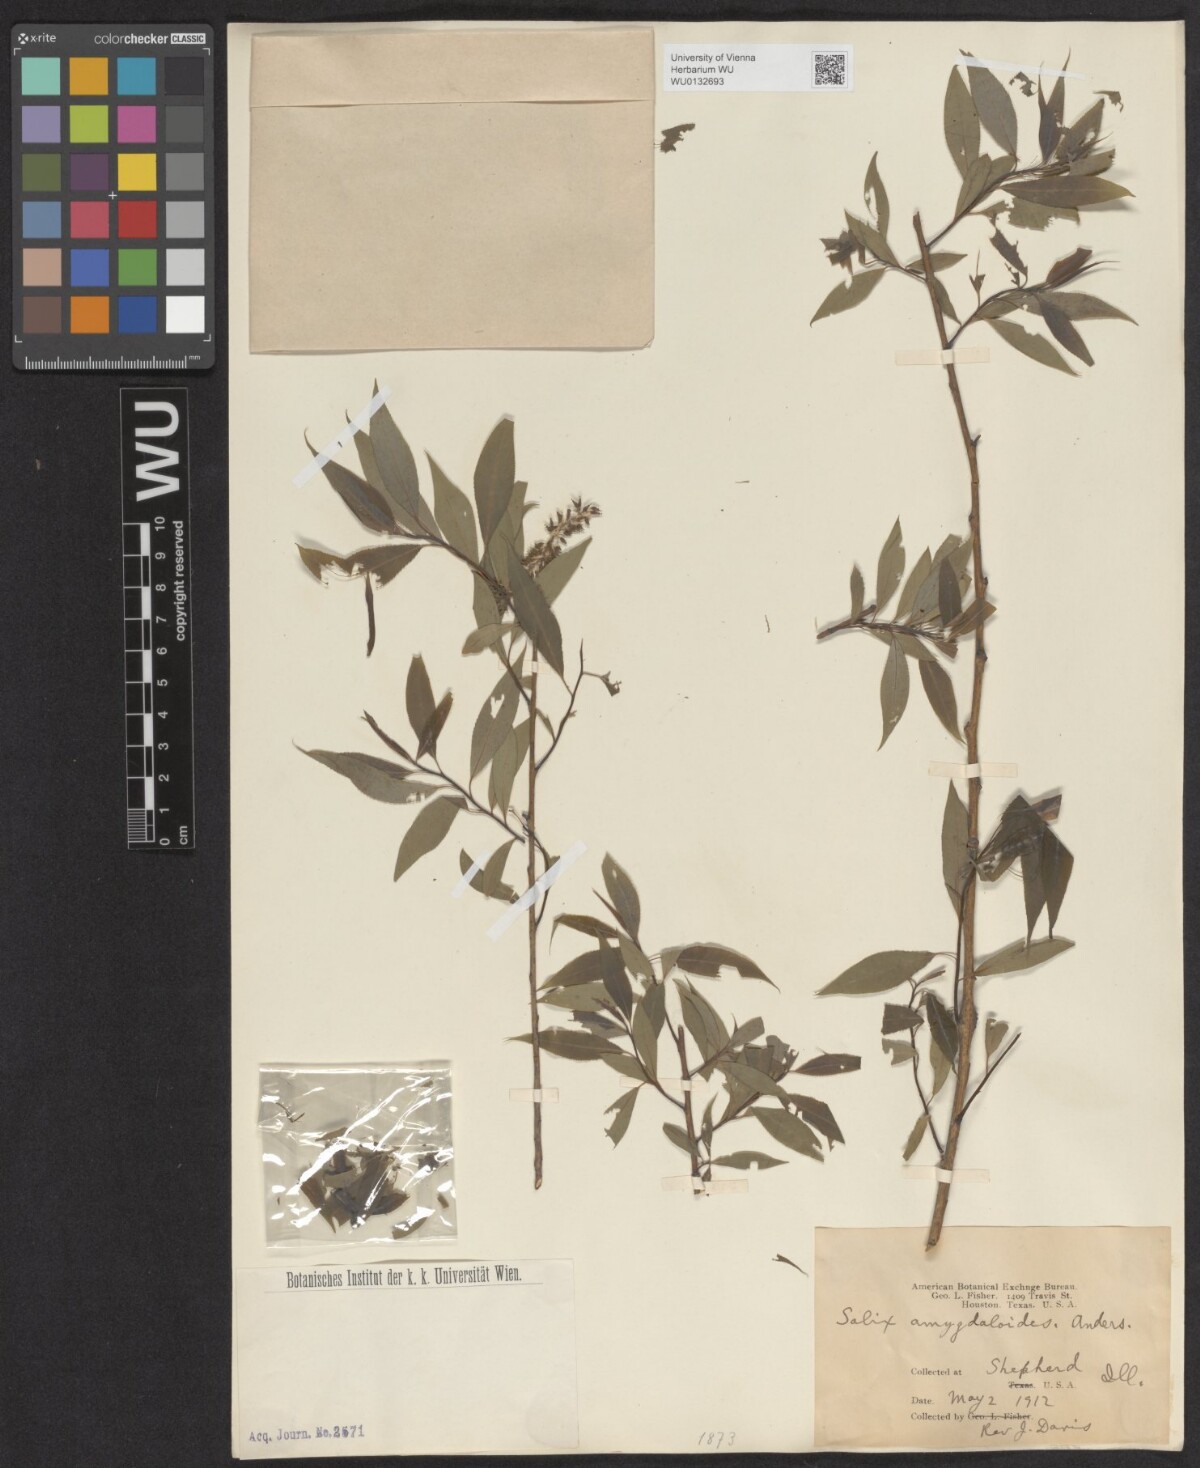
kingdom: Plantae
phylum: Tracheophyta
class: Magnoliopsida
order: Malpighiales
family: Salicaceae
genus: Salix
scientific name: Salix amygdaloides
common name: Peach leaf willow
